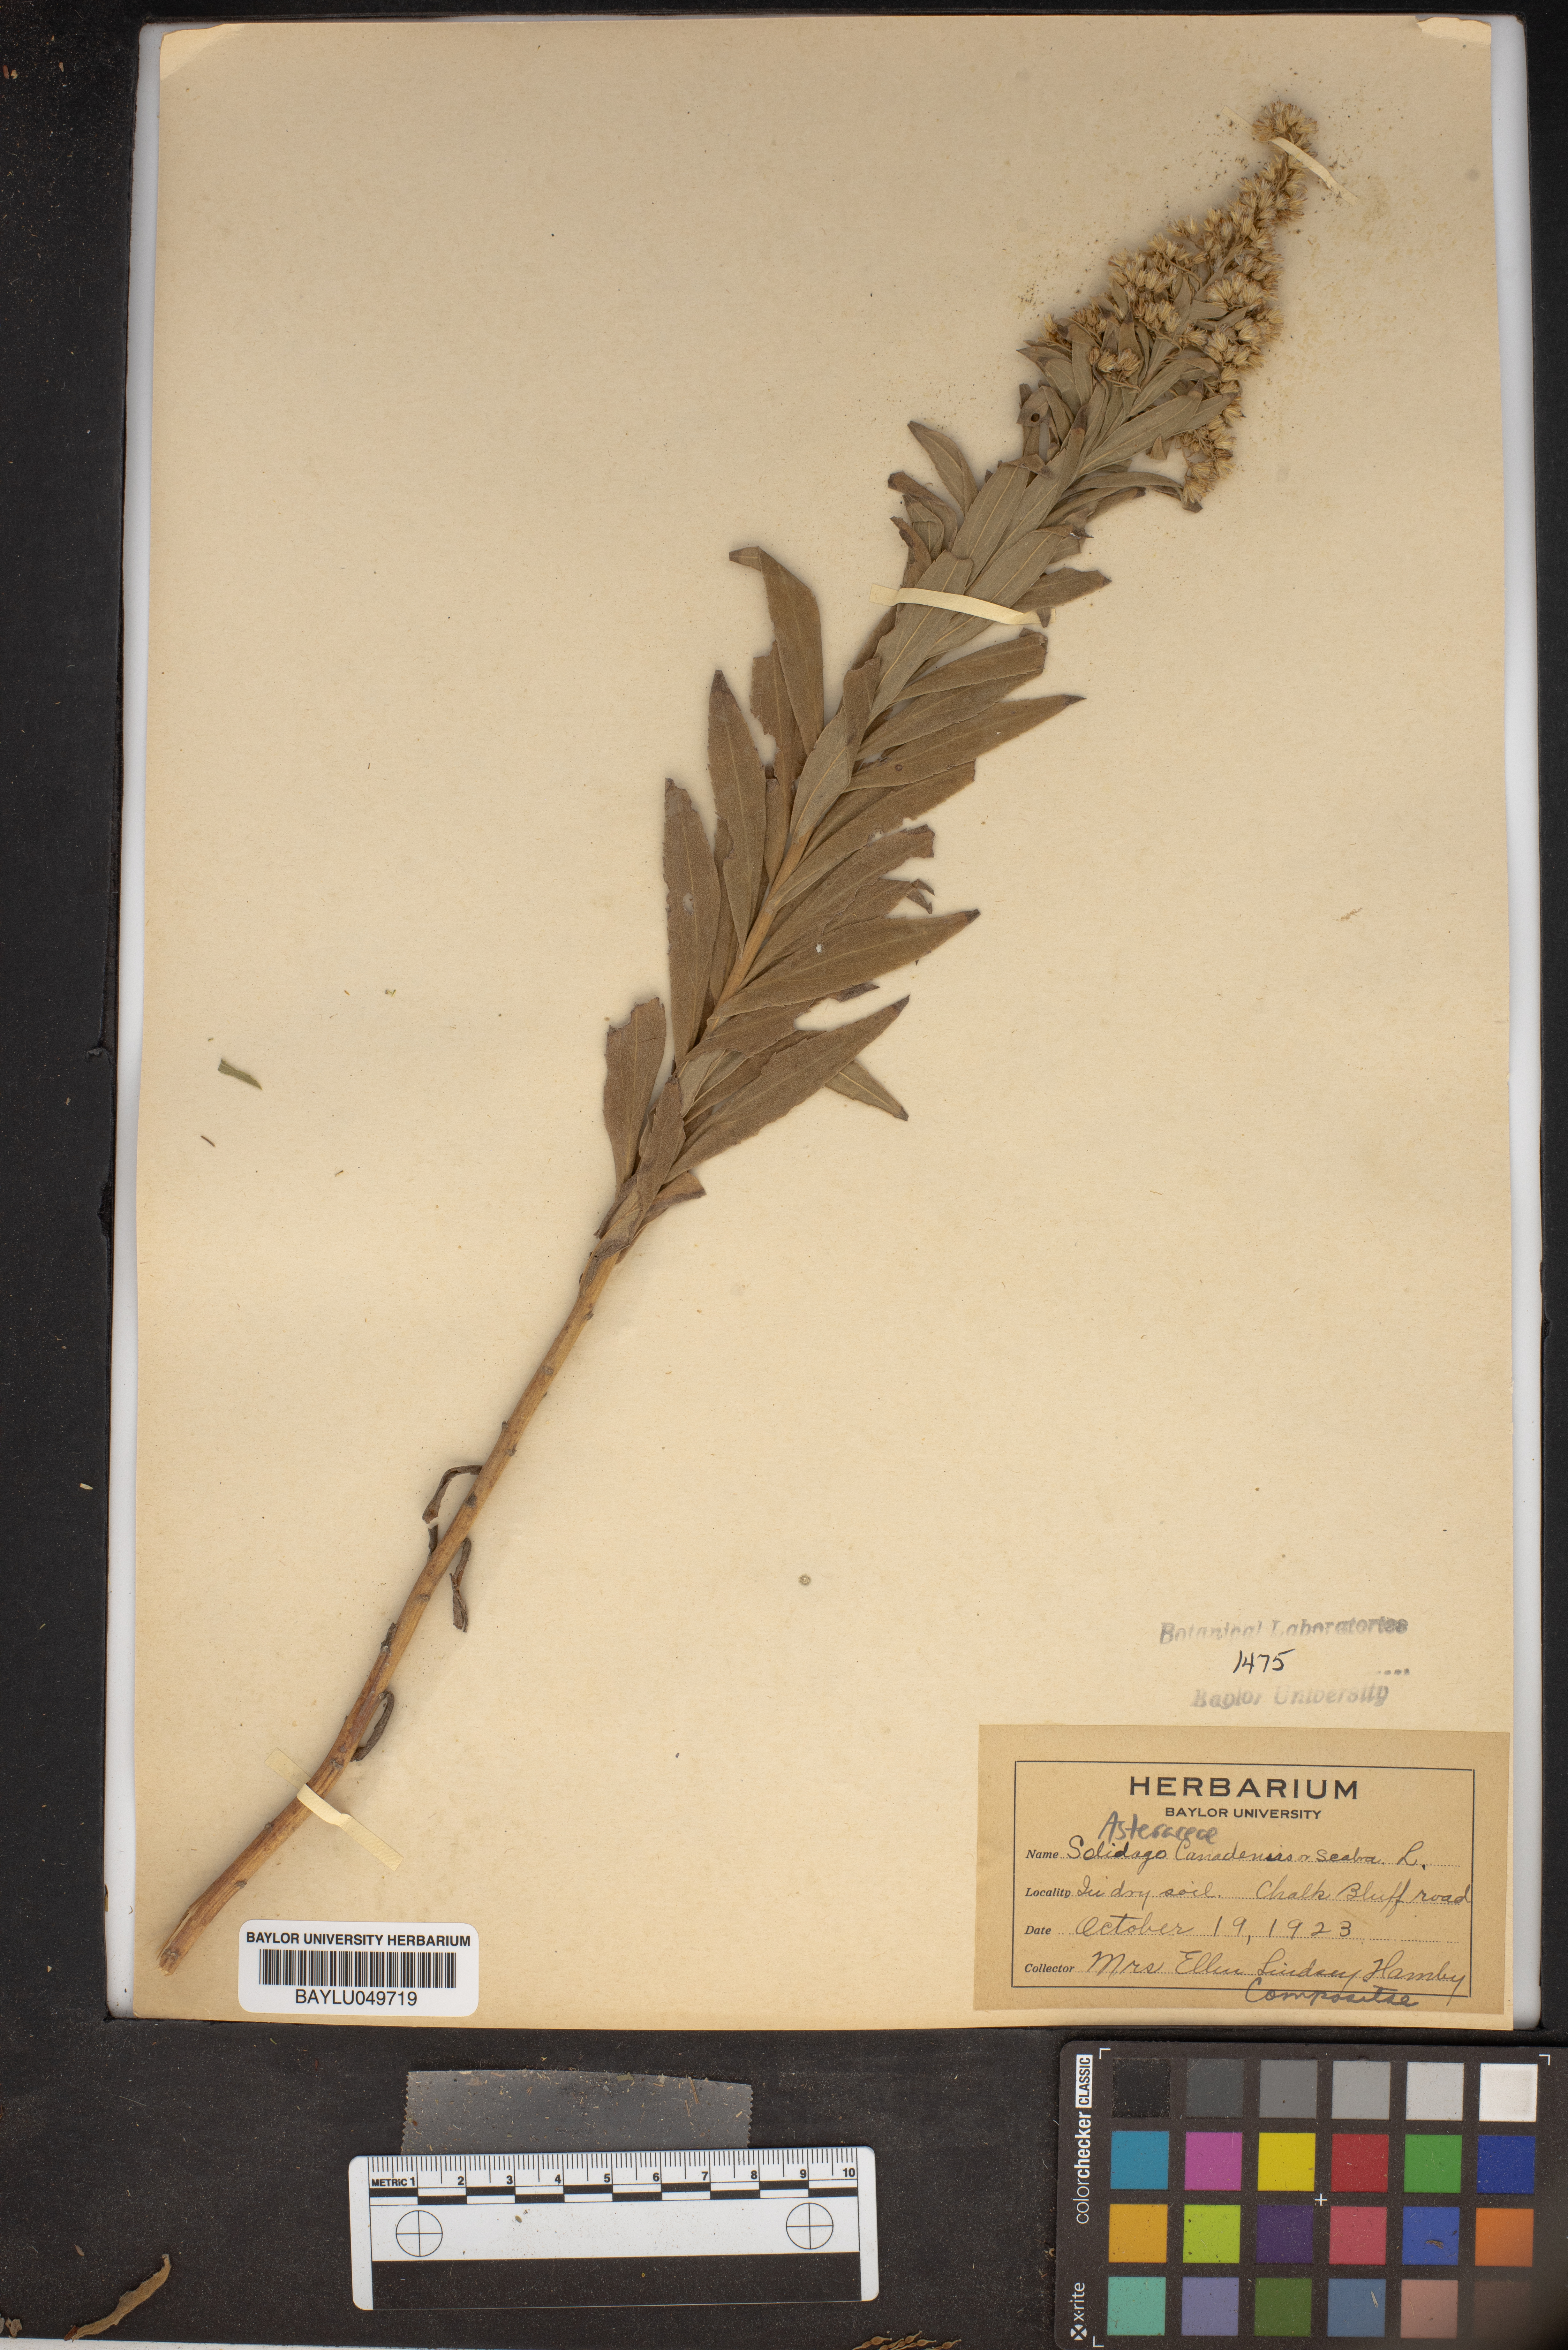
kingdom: Plantae
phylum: Tracheophyta
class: Magnoliopsida
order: Asterales
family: Asteraceae
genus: Solidago
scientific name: Solidago canadensis
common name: Canada goldenrod
